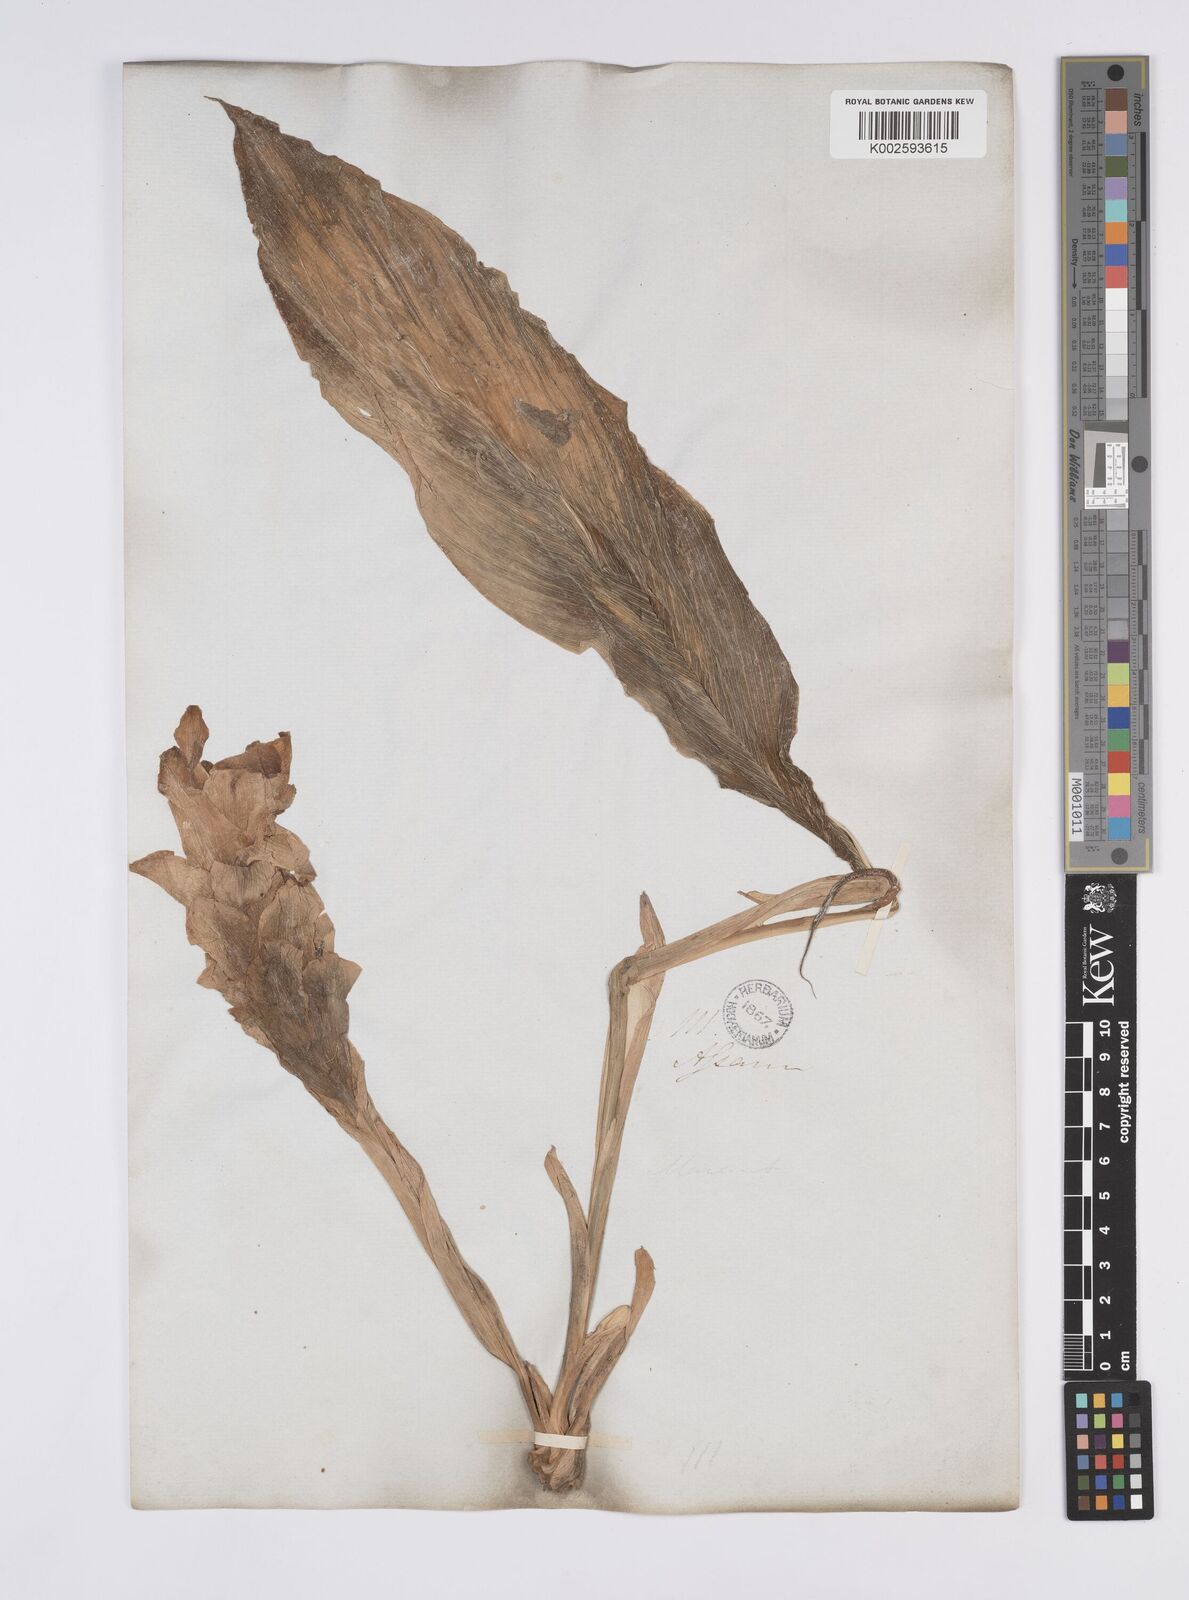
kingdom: Plantae
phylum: Tracheophyta
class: Liliopsida
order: Zingiberales
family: Zingiberaceae
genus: Curcuma
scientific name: Curcuma
